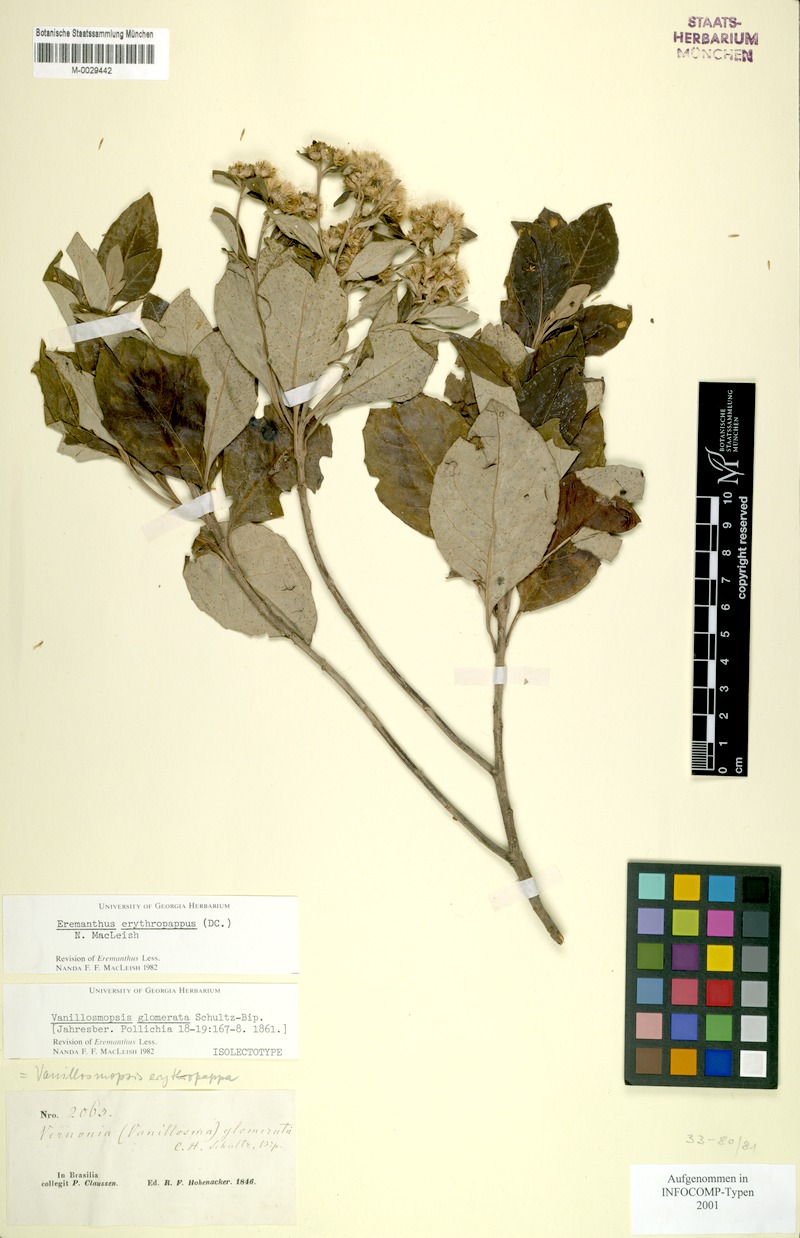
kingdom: Plantae
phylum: Tracheophyta
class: Magnoliopsida
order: Asterales
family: Asteraceae
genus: Eremanthus
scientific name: Eremanthus erythropappus
